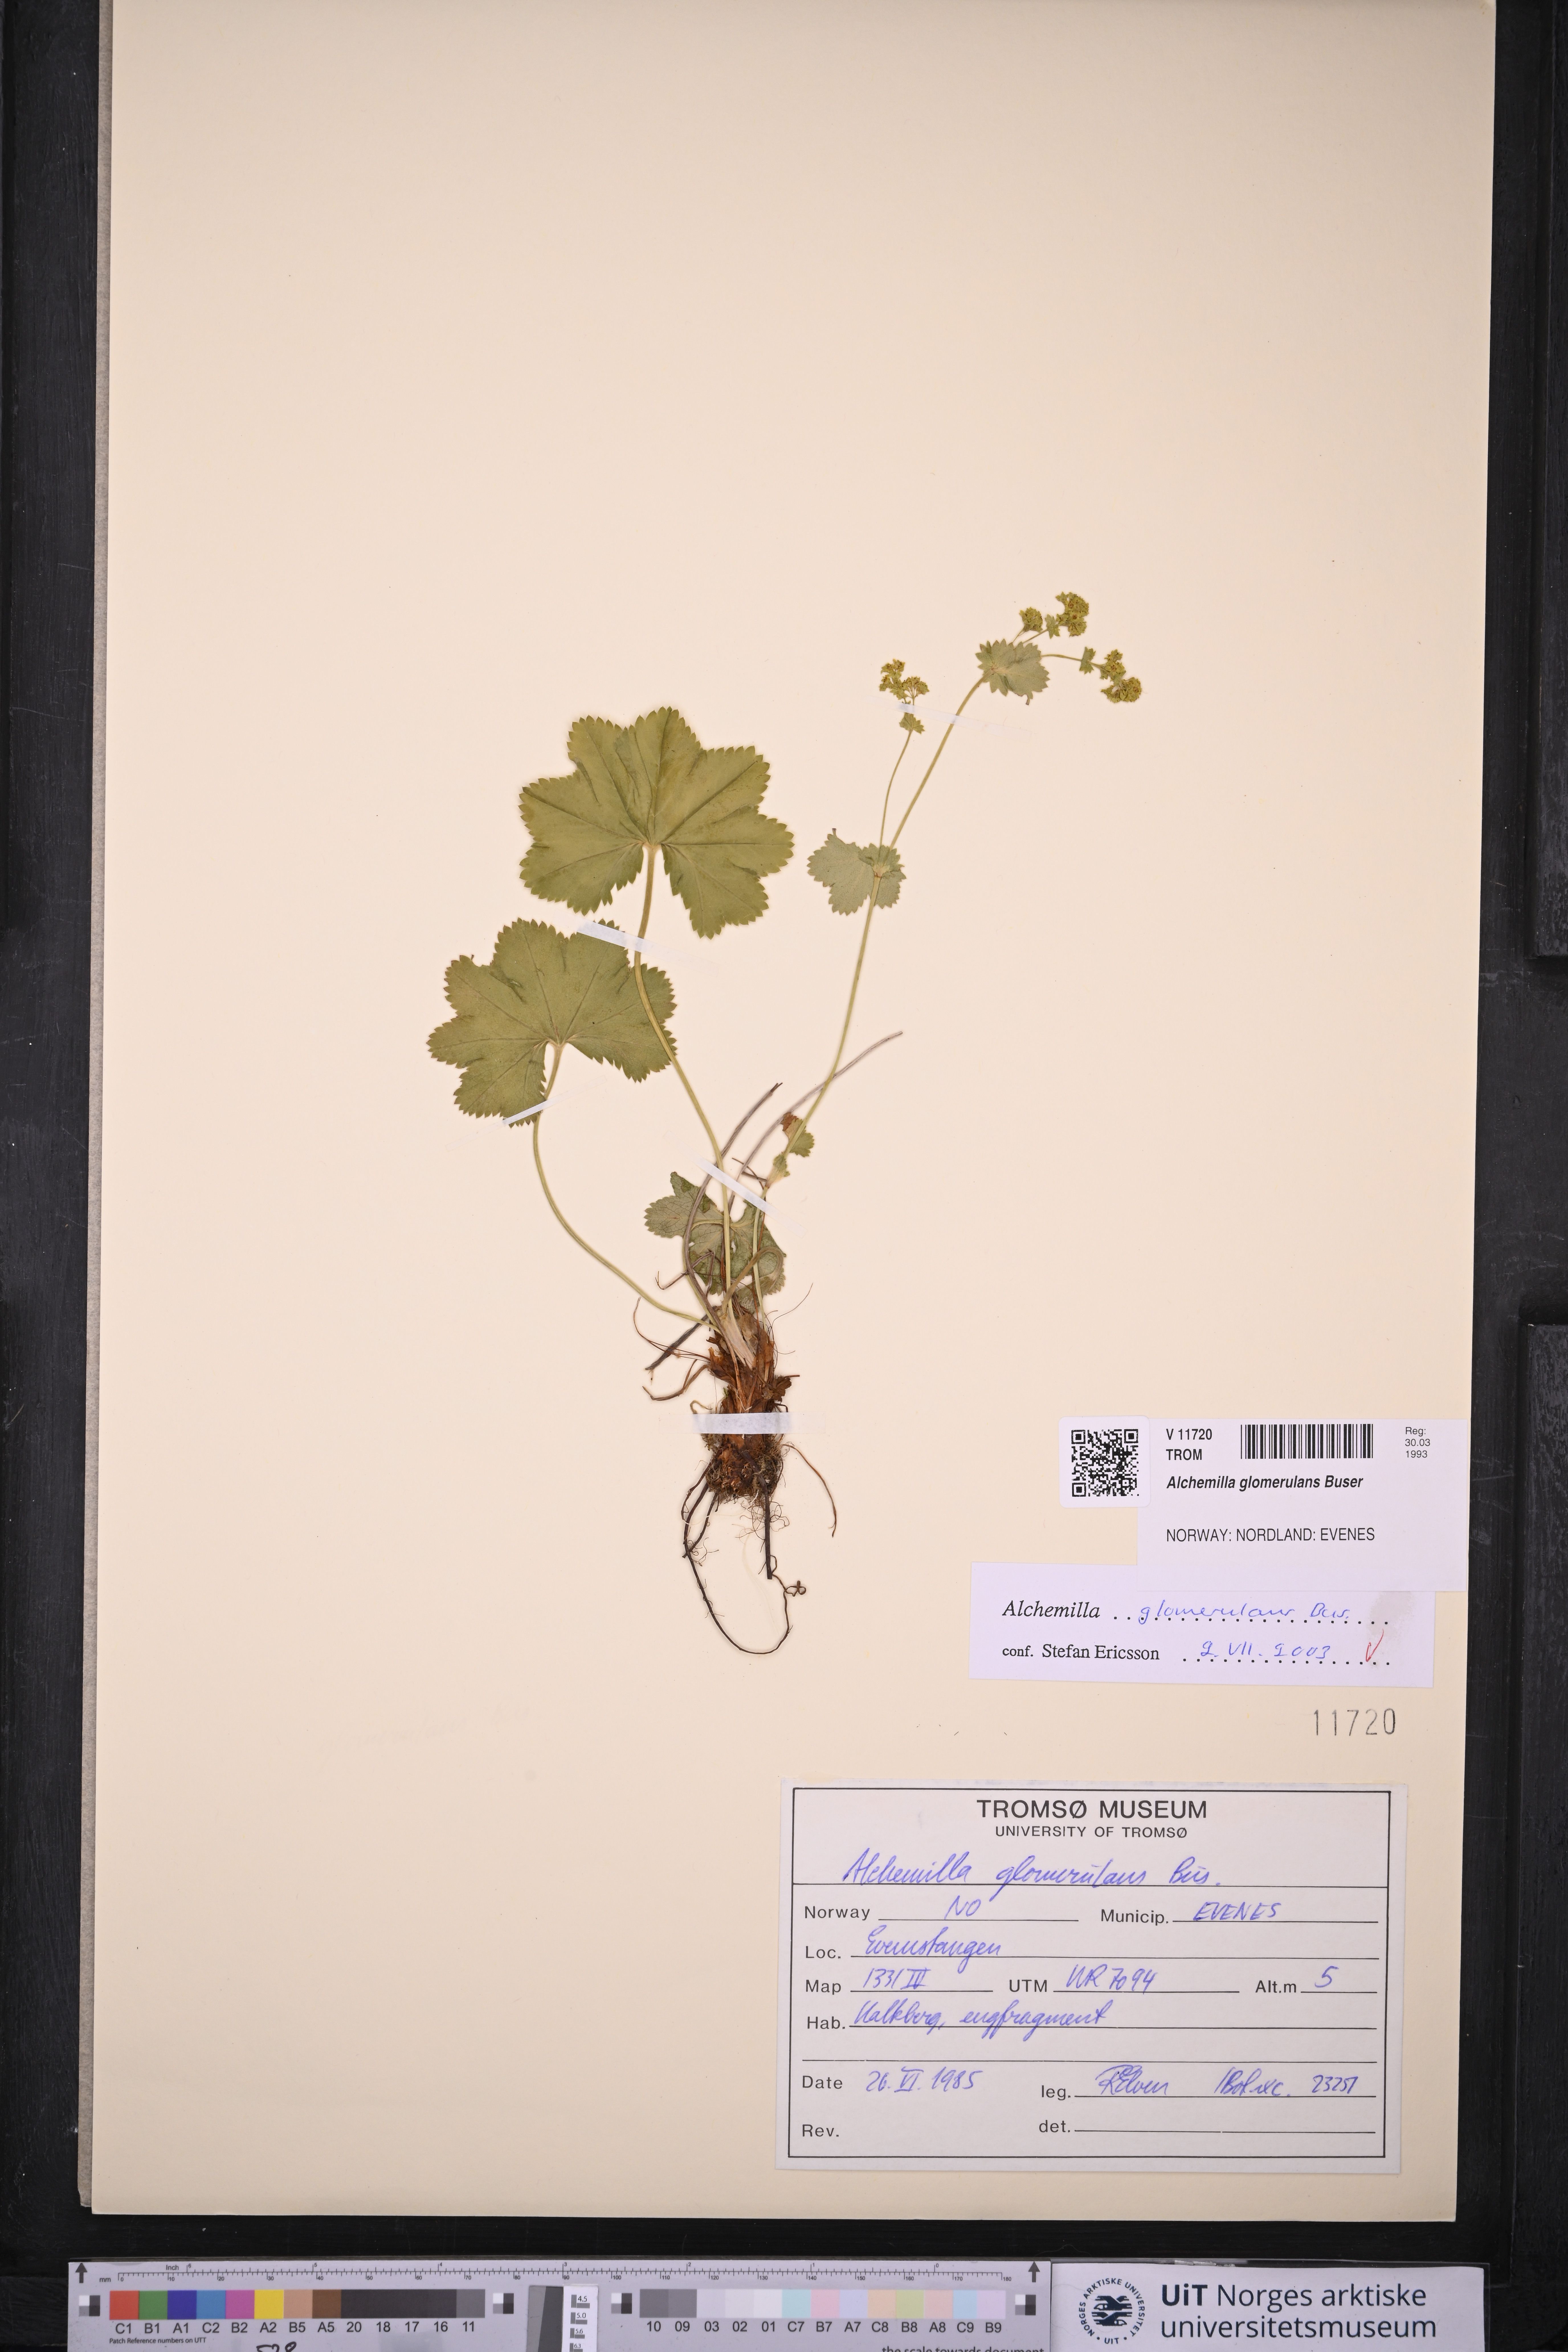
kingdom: Plantae
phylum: Tracheophyta
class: Magnoliopsida
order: Rosales
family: Rosaceae
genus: Alchemilla
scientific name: Alchemilla glomerulans
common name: Clustered lady's mantle
